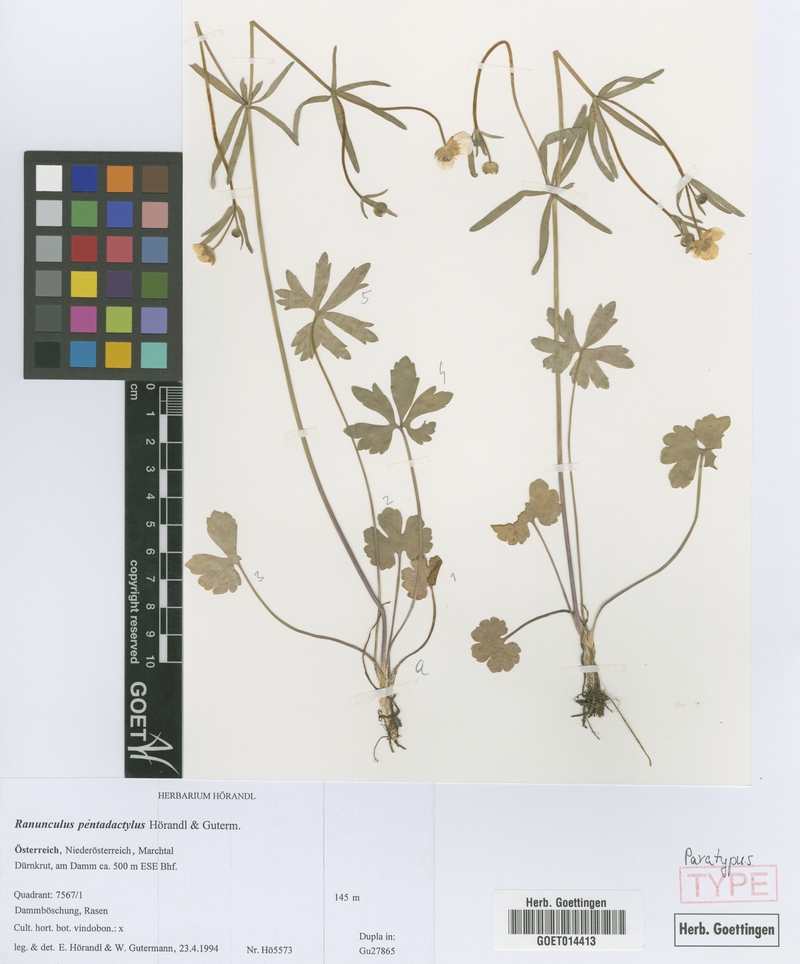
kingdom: Plantae
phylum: Tracheophyta
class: Magnoliopsida
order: Ranunculales
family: Ranunculaceae
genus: Ranunculus
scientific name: Ranunculus pentadactylus
